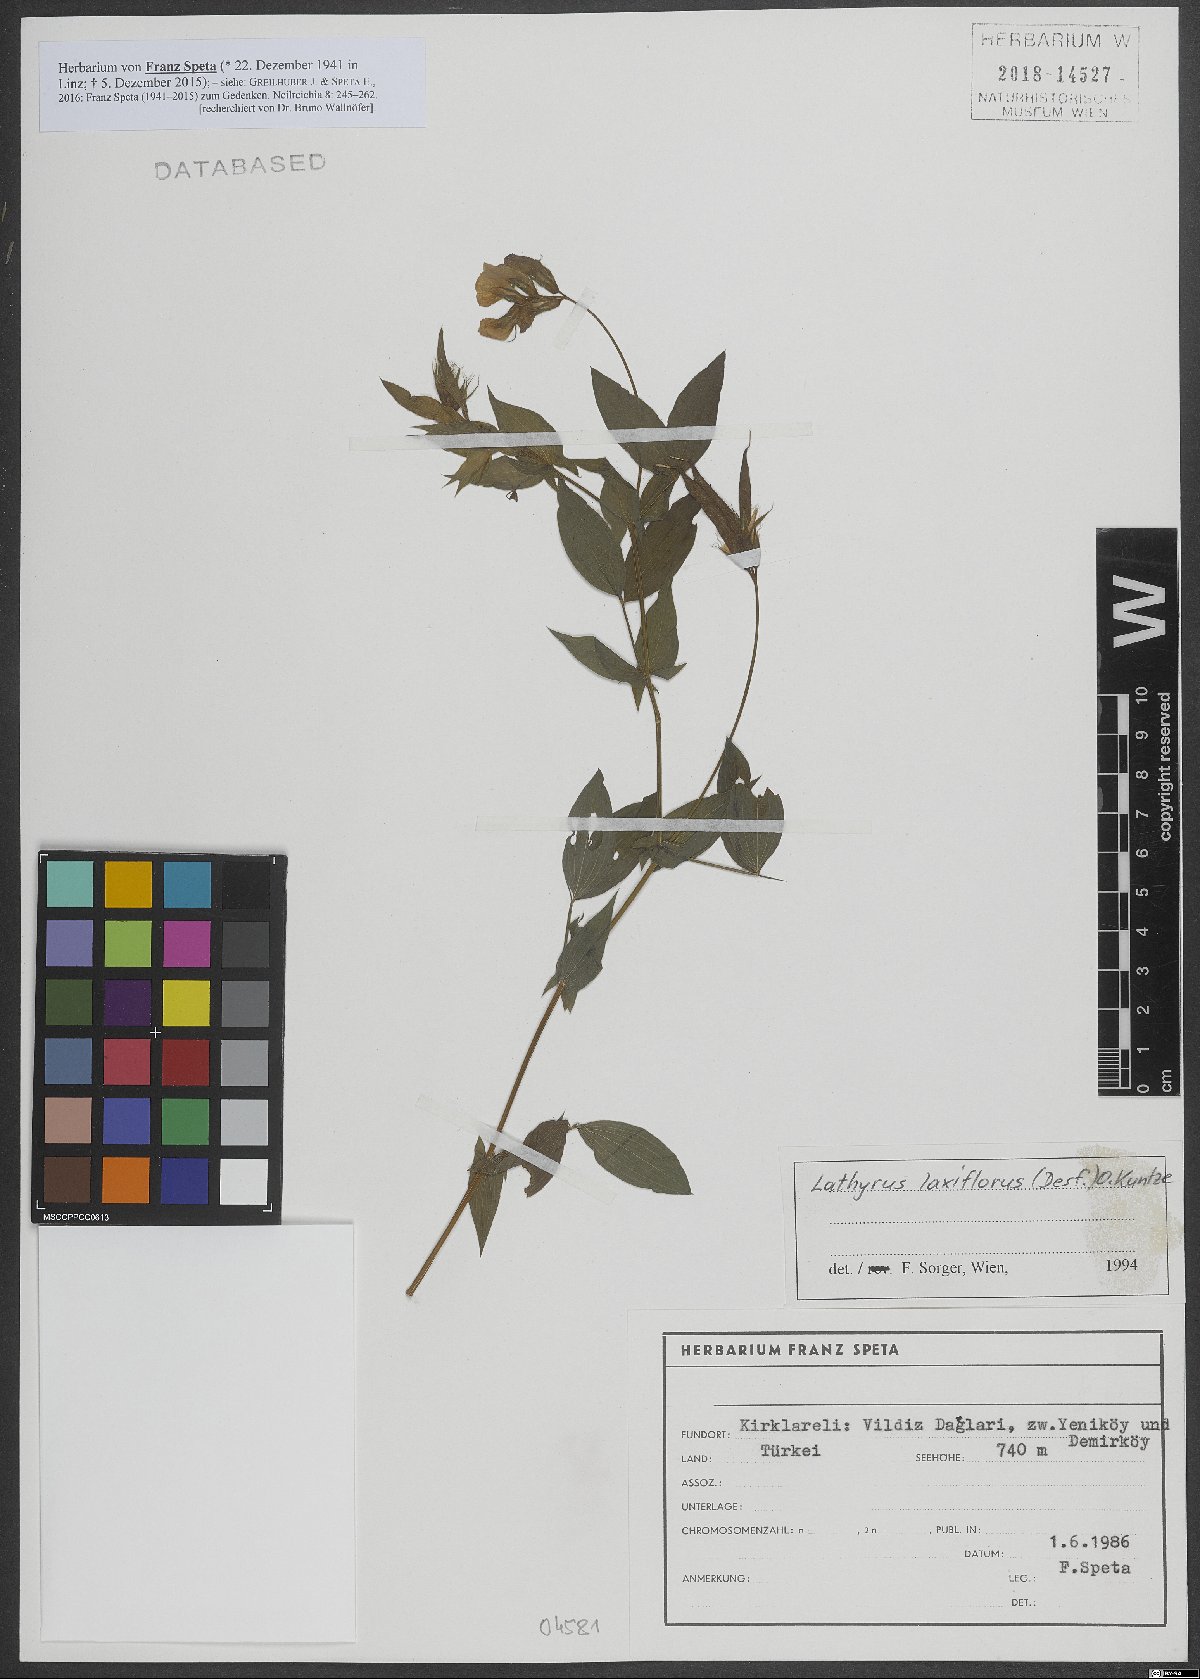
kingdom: Plantae
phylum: Tracheophyta
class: Magnoliopsida
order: Fabales
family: Fabaceae
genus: Lathyrus
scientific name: Lathyrus laxiflorus
